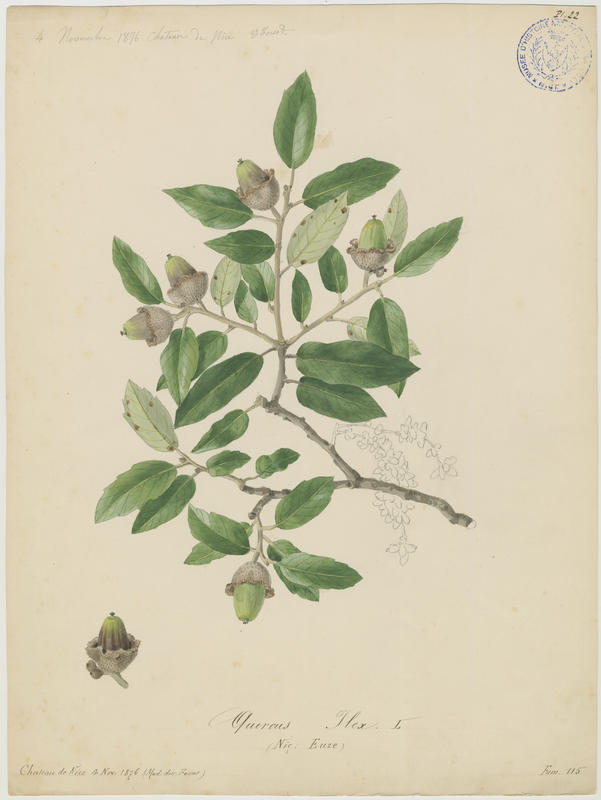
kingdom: Plantae
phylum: Tracheophyta
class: Magnoliopsida
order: Fagales
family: Fagaceae
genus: Quercus
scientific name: Quercus ilex
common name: Evergreen oak
